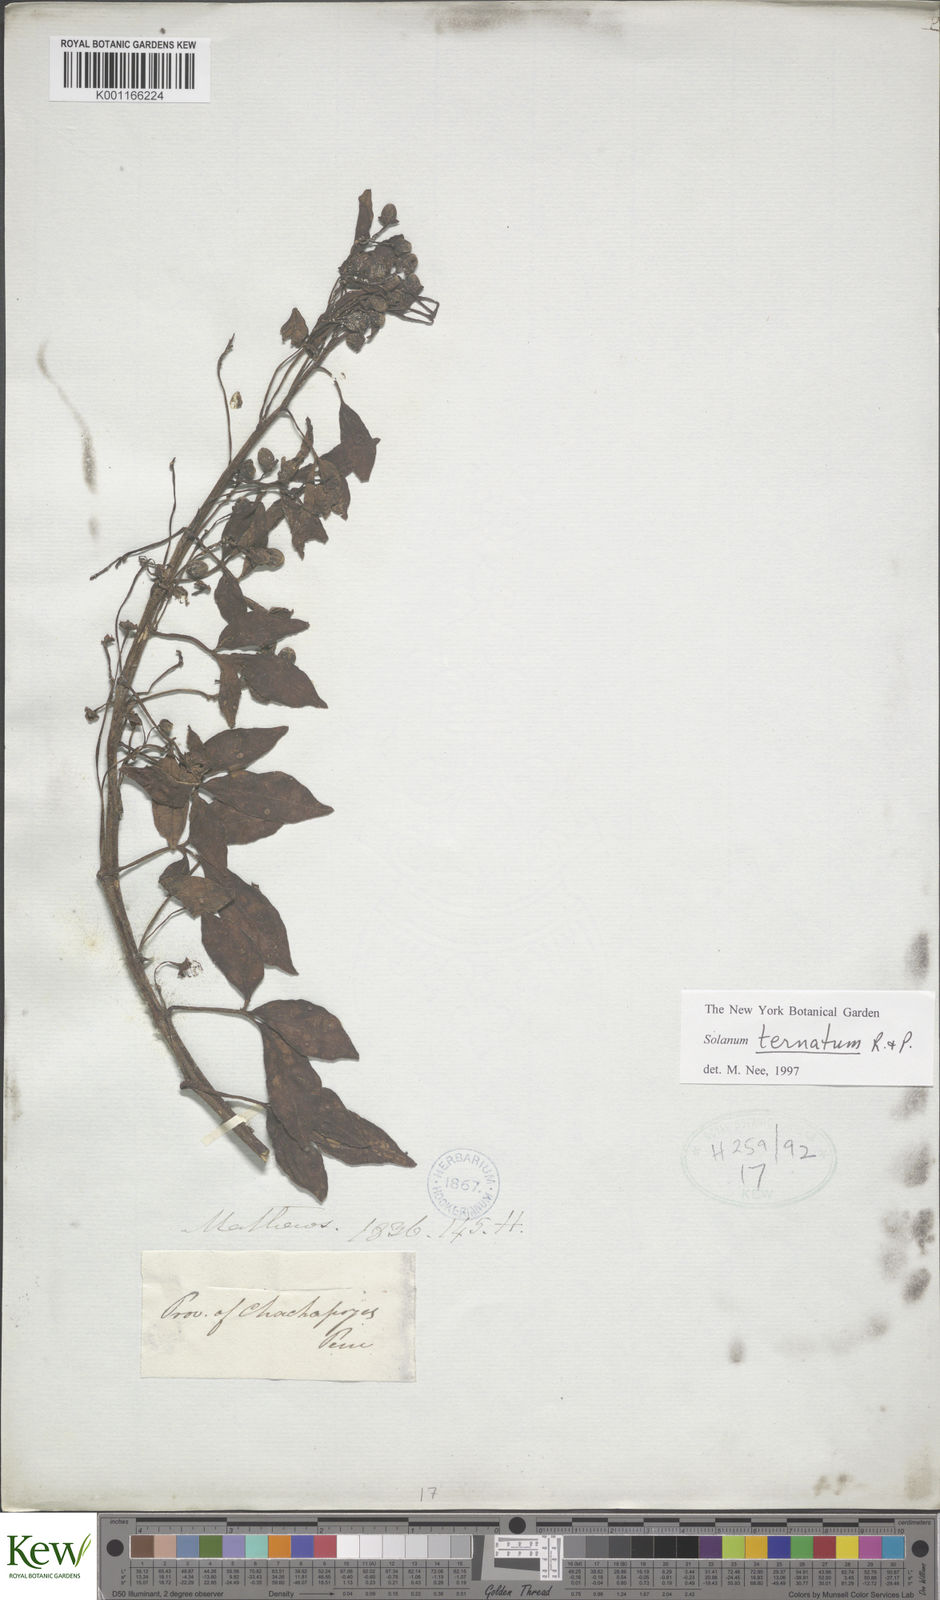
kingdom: Plantae
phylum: Tracheophyta
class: Magnoliopsida
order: Solanales
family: Solanaceae
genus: Solanum
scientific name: Solanum ternatum
